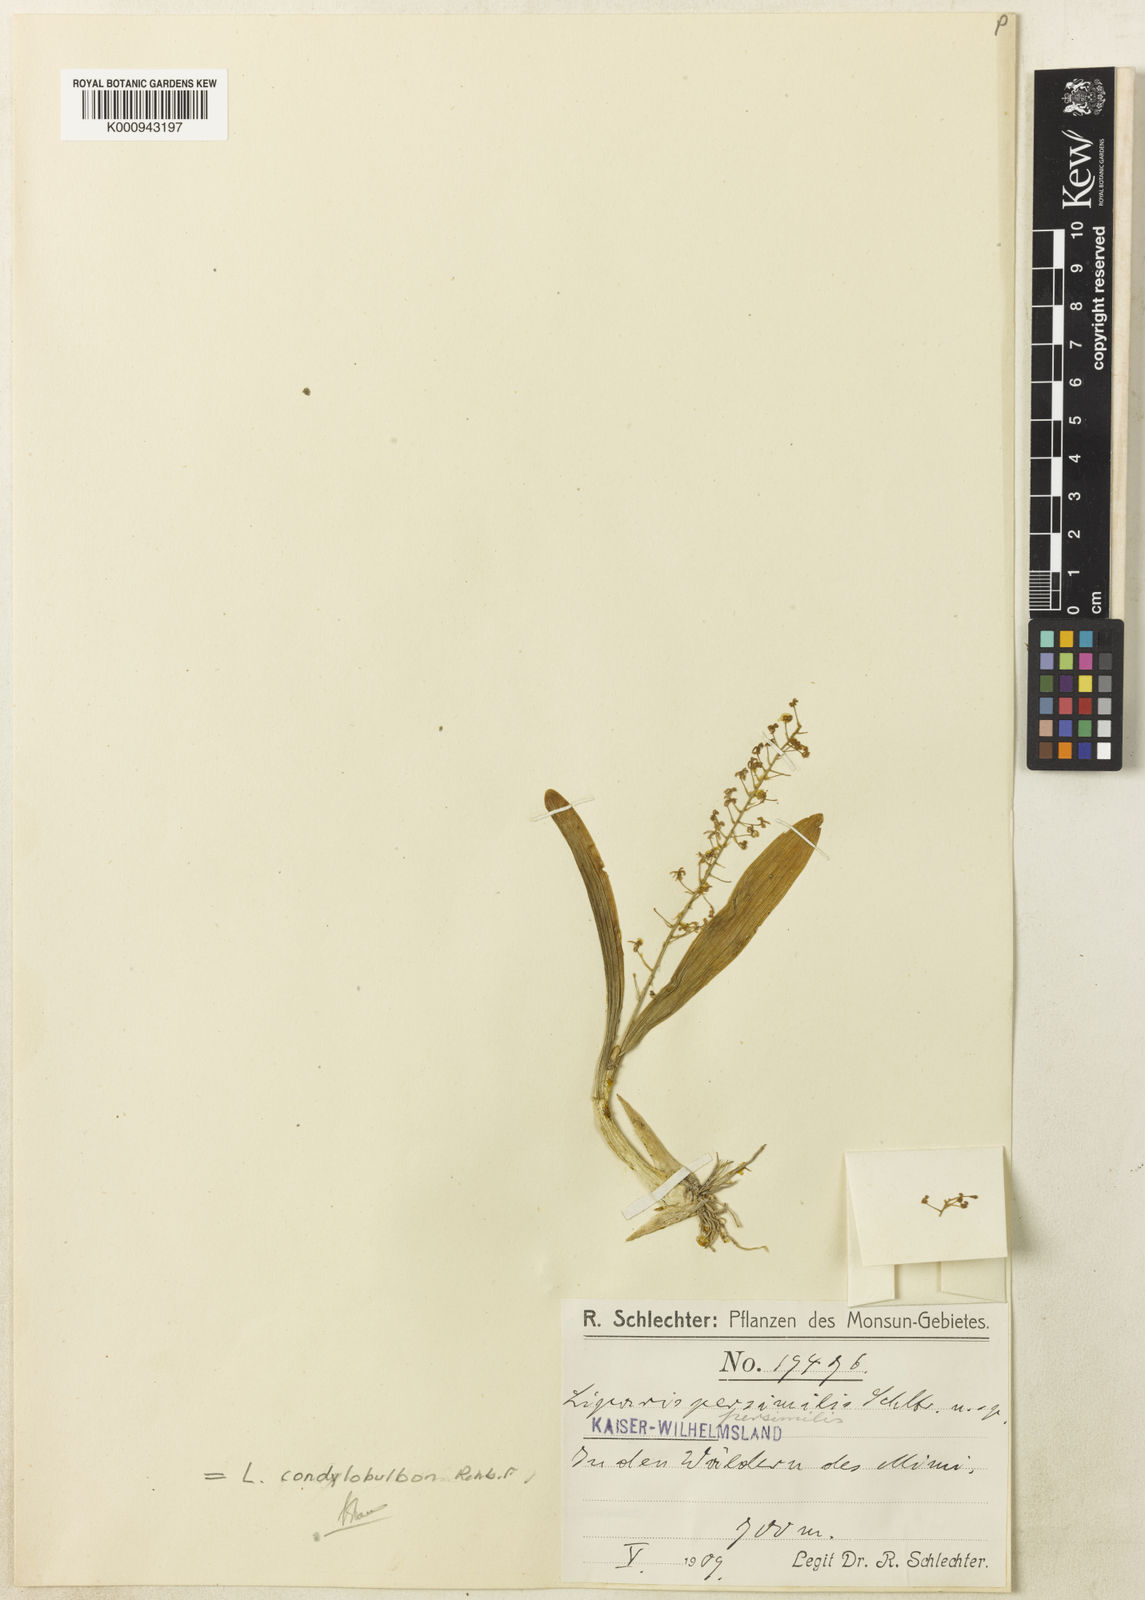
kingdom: Plantae
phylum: Tracheophyta
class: Liliopsida
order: Asparagales
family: Orchidaceae
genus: Liparis
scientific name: Liparis condylobulbon
